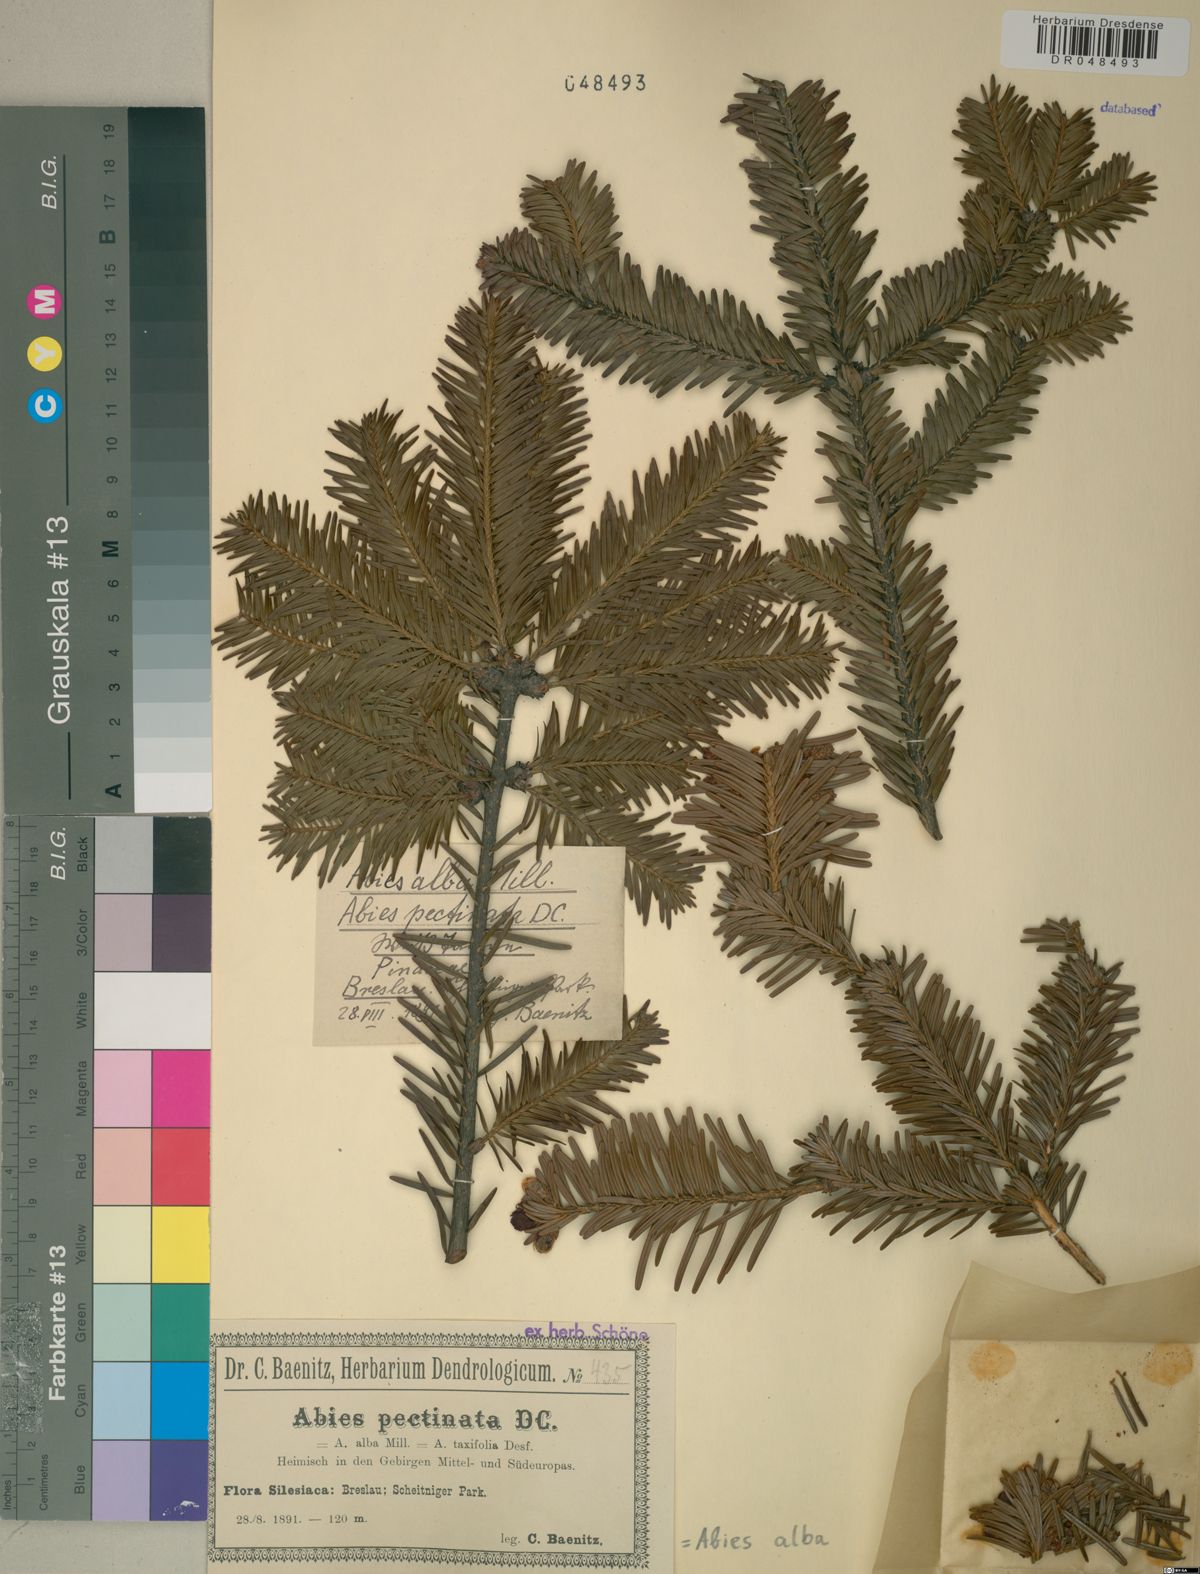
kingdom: Plantae
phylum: Tracheophyta
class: Pinopsida
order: Pinales
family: Pinaceae
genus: Abies
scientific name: Abies alba
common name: Silver fir
